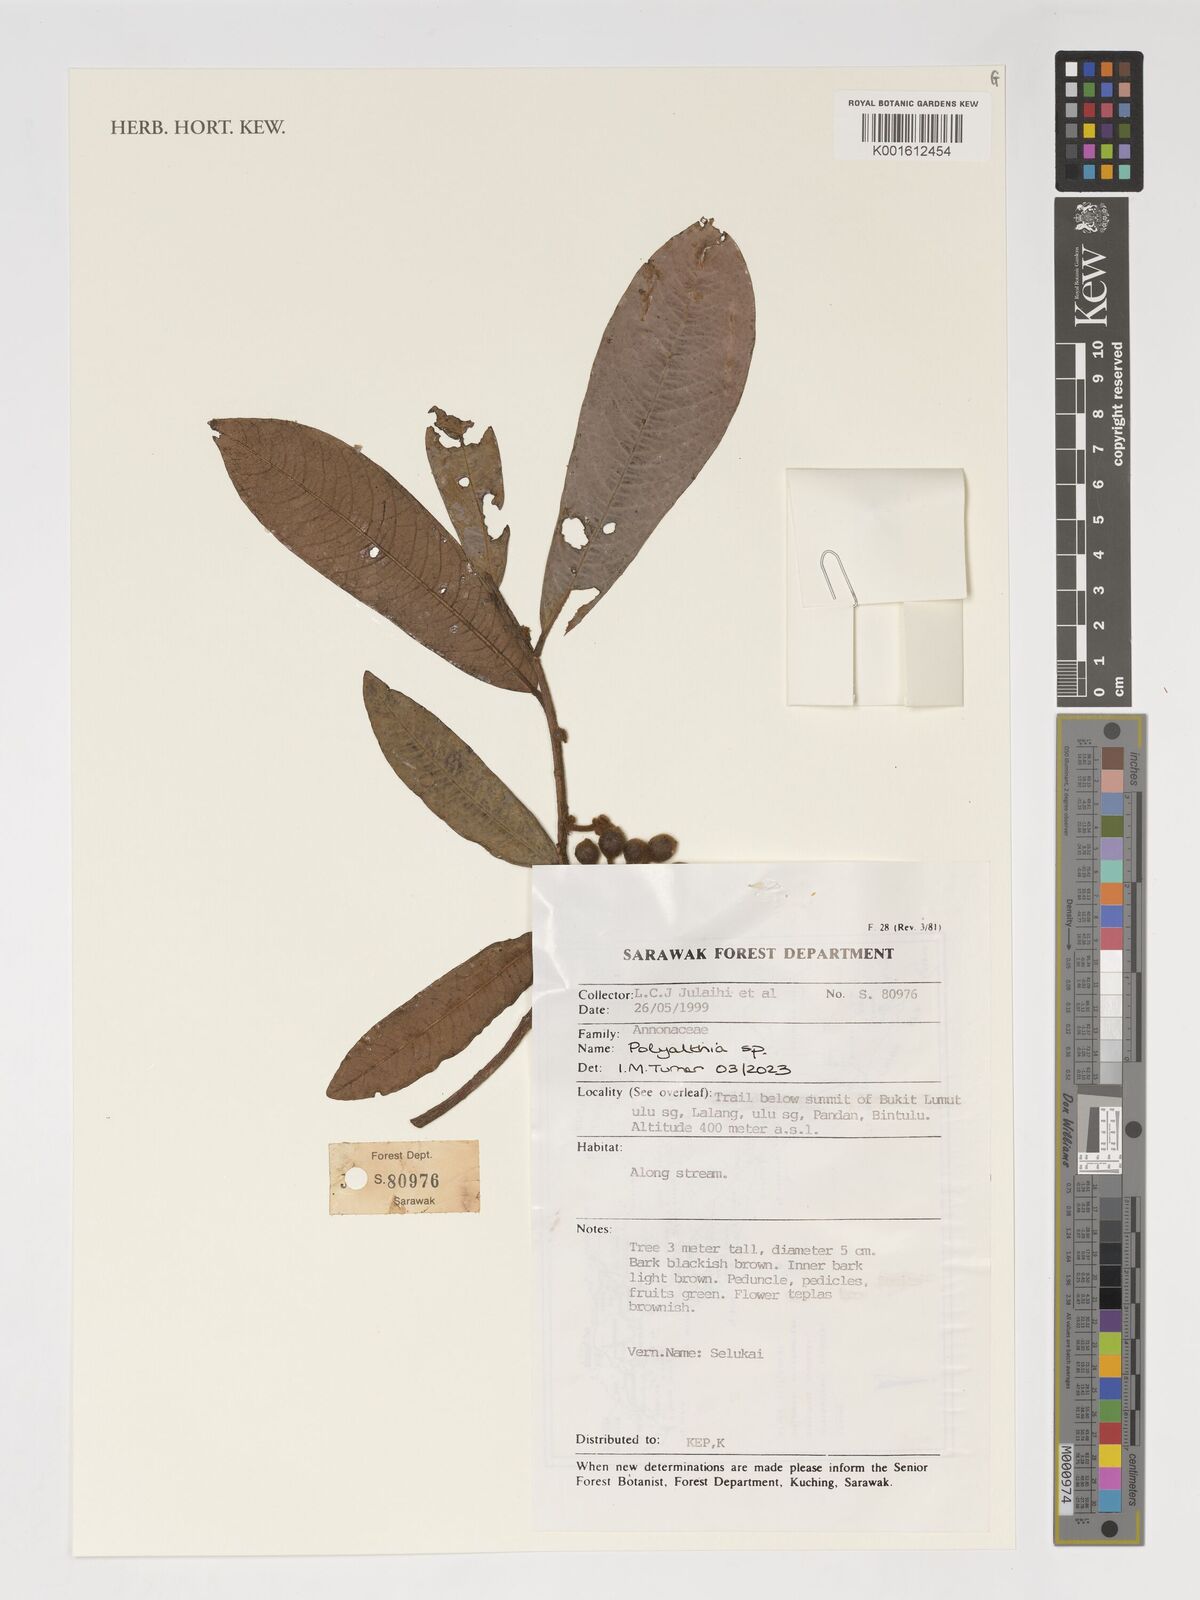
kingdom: Plantae
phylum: Tracheophyta
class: Magnoliopsida
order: Magnoliales
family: Annonaceae
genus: Polyalthia
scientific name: Polyalthia
